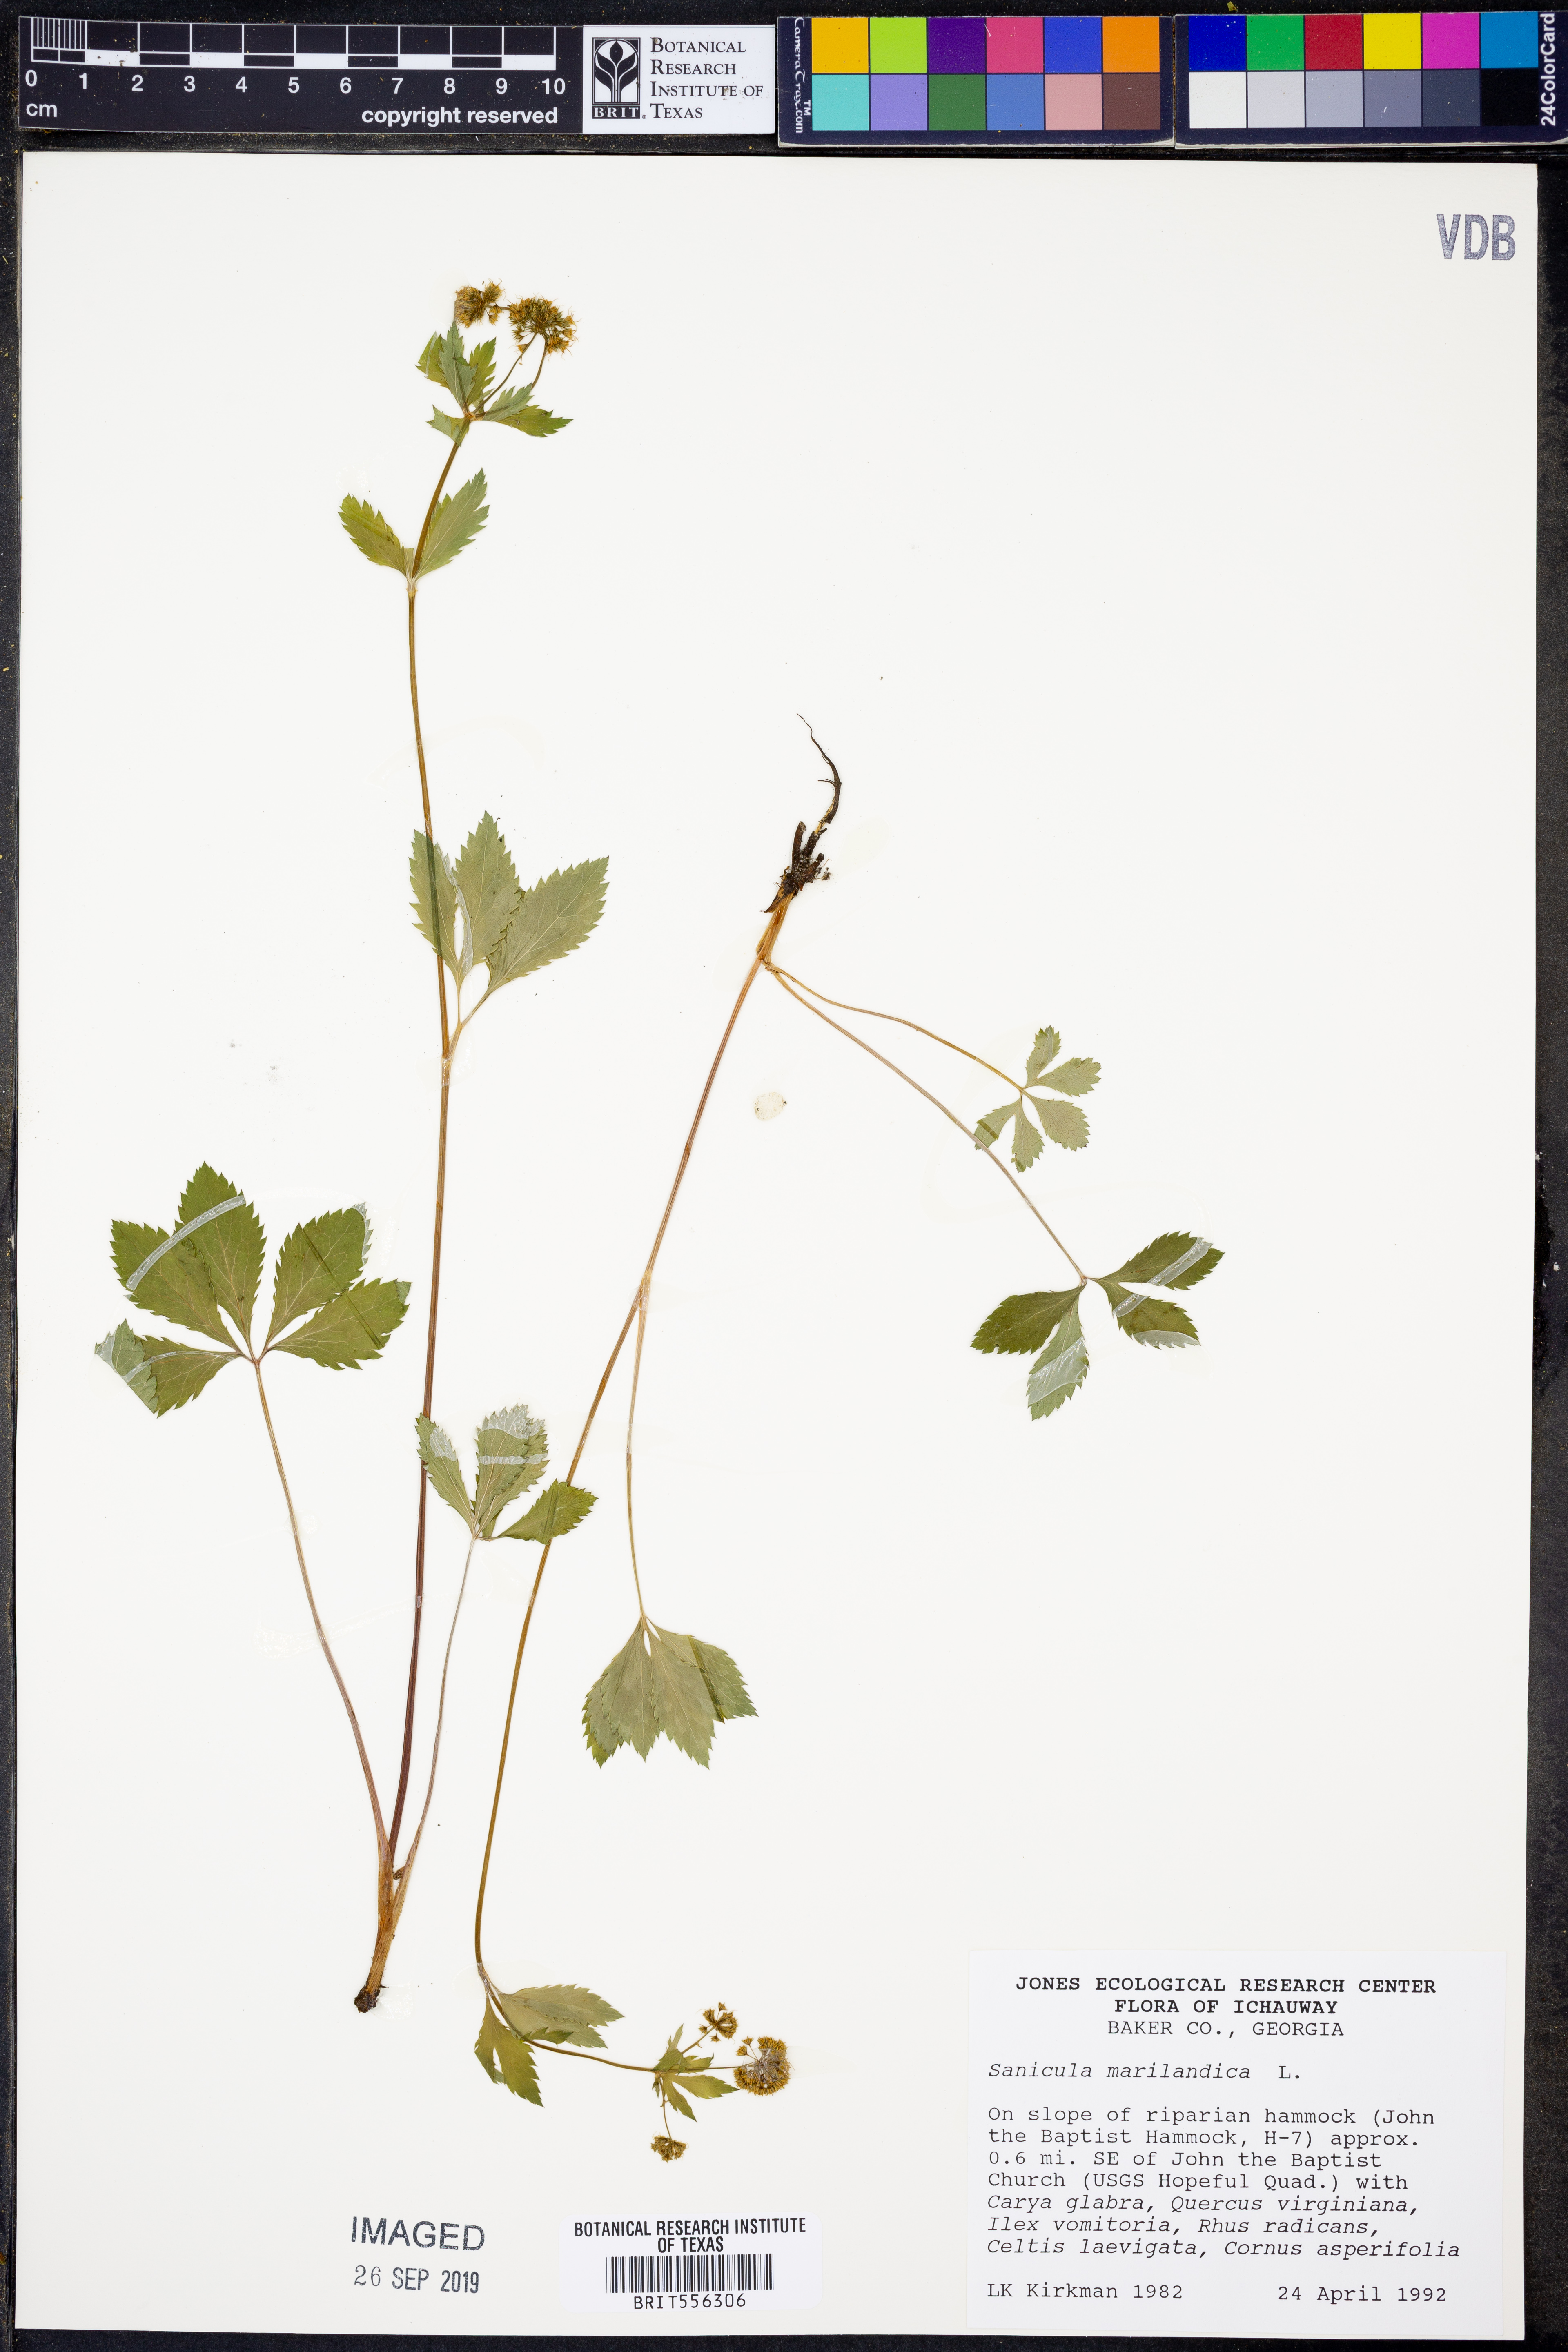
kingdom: Plantae
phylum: Tracheophyta
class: Magnoliopsida
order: Apiales
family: Apiaceae
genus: Sanicula
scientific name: Sanicula marilandica
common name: Black snakeroot
